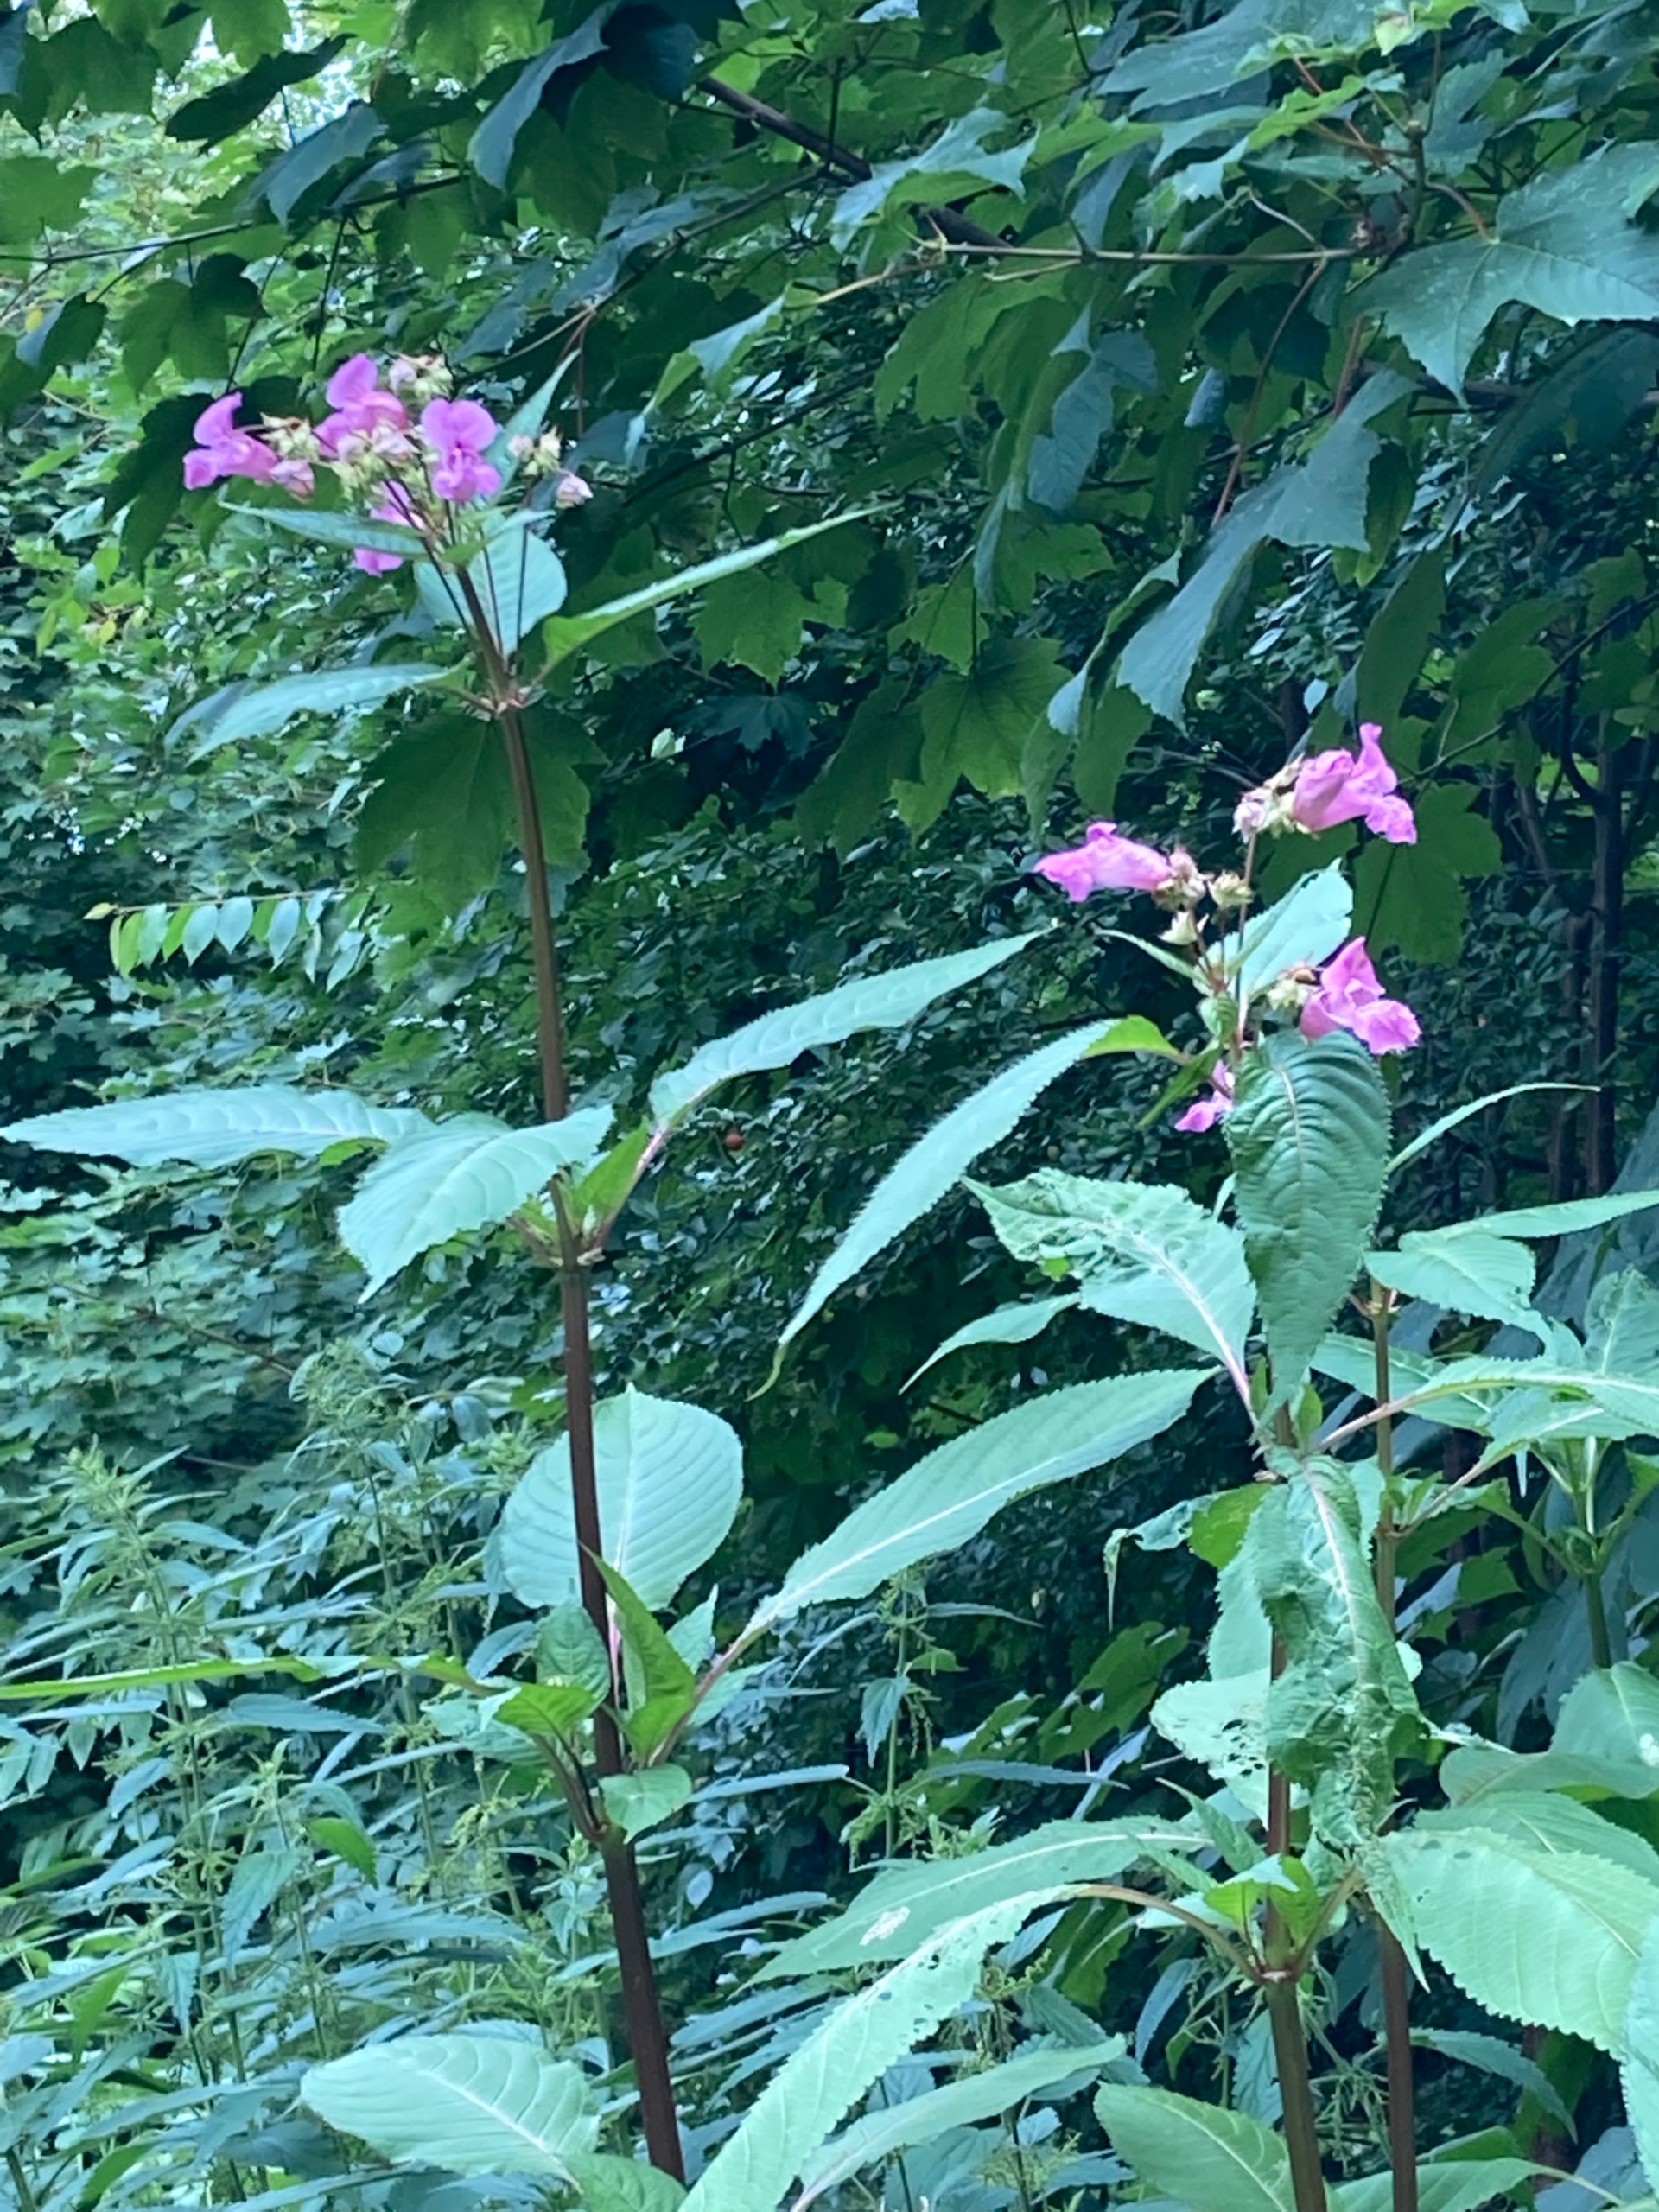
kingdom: Plantae
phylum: Tracheophyta
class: Magnoliopsida
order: Ericales
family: Balsaminaceae
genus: Impatiens
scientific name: Impatiens glandulifera
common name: Kæmpe-balsamin
